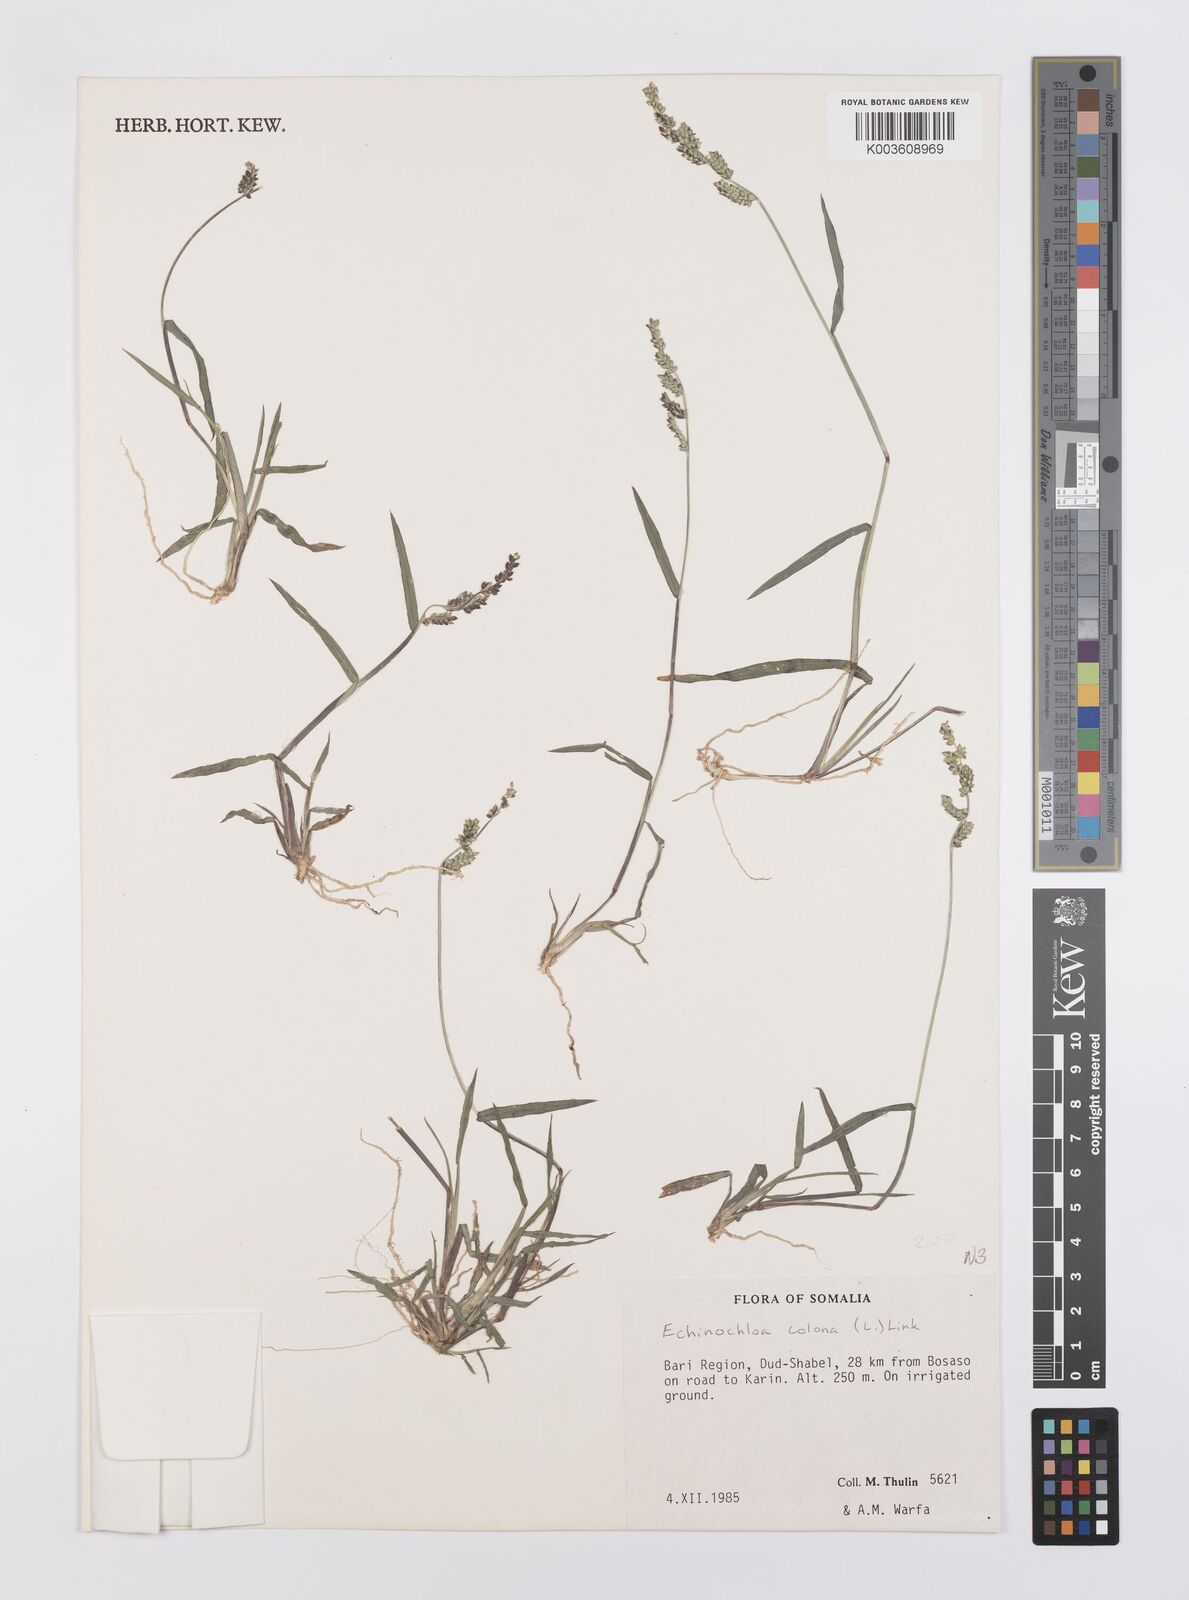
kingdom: Plantae
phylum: Tracheophyta
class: Liliopsida
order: Poales
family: Poaceae
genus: Echinochloa
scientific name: Echinochloa colonum
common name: Jungle rice
